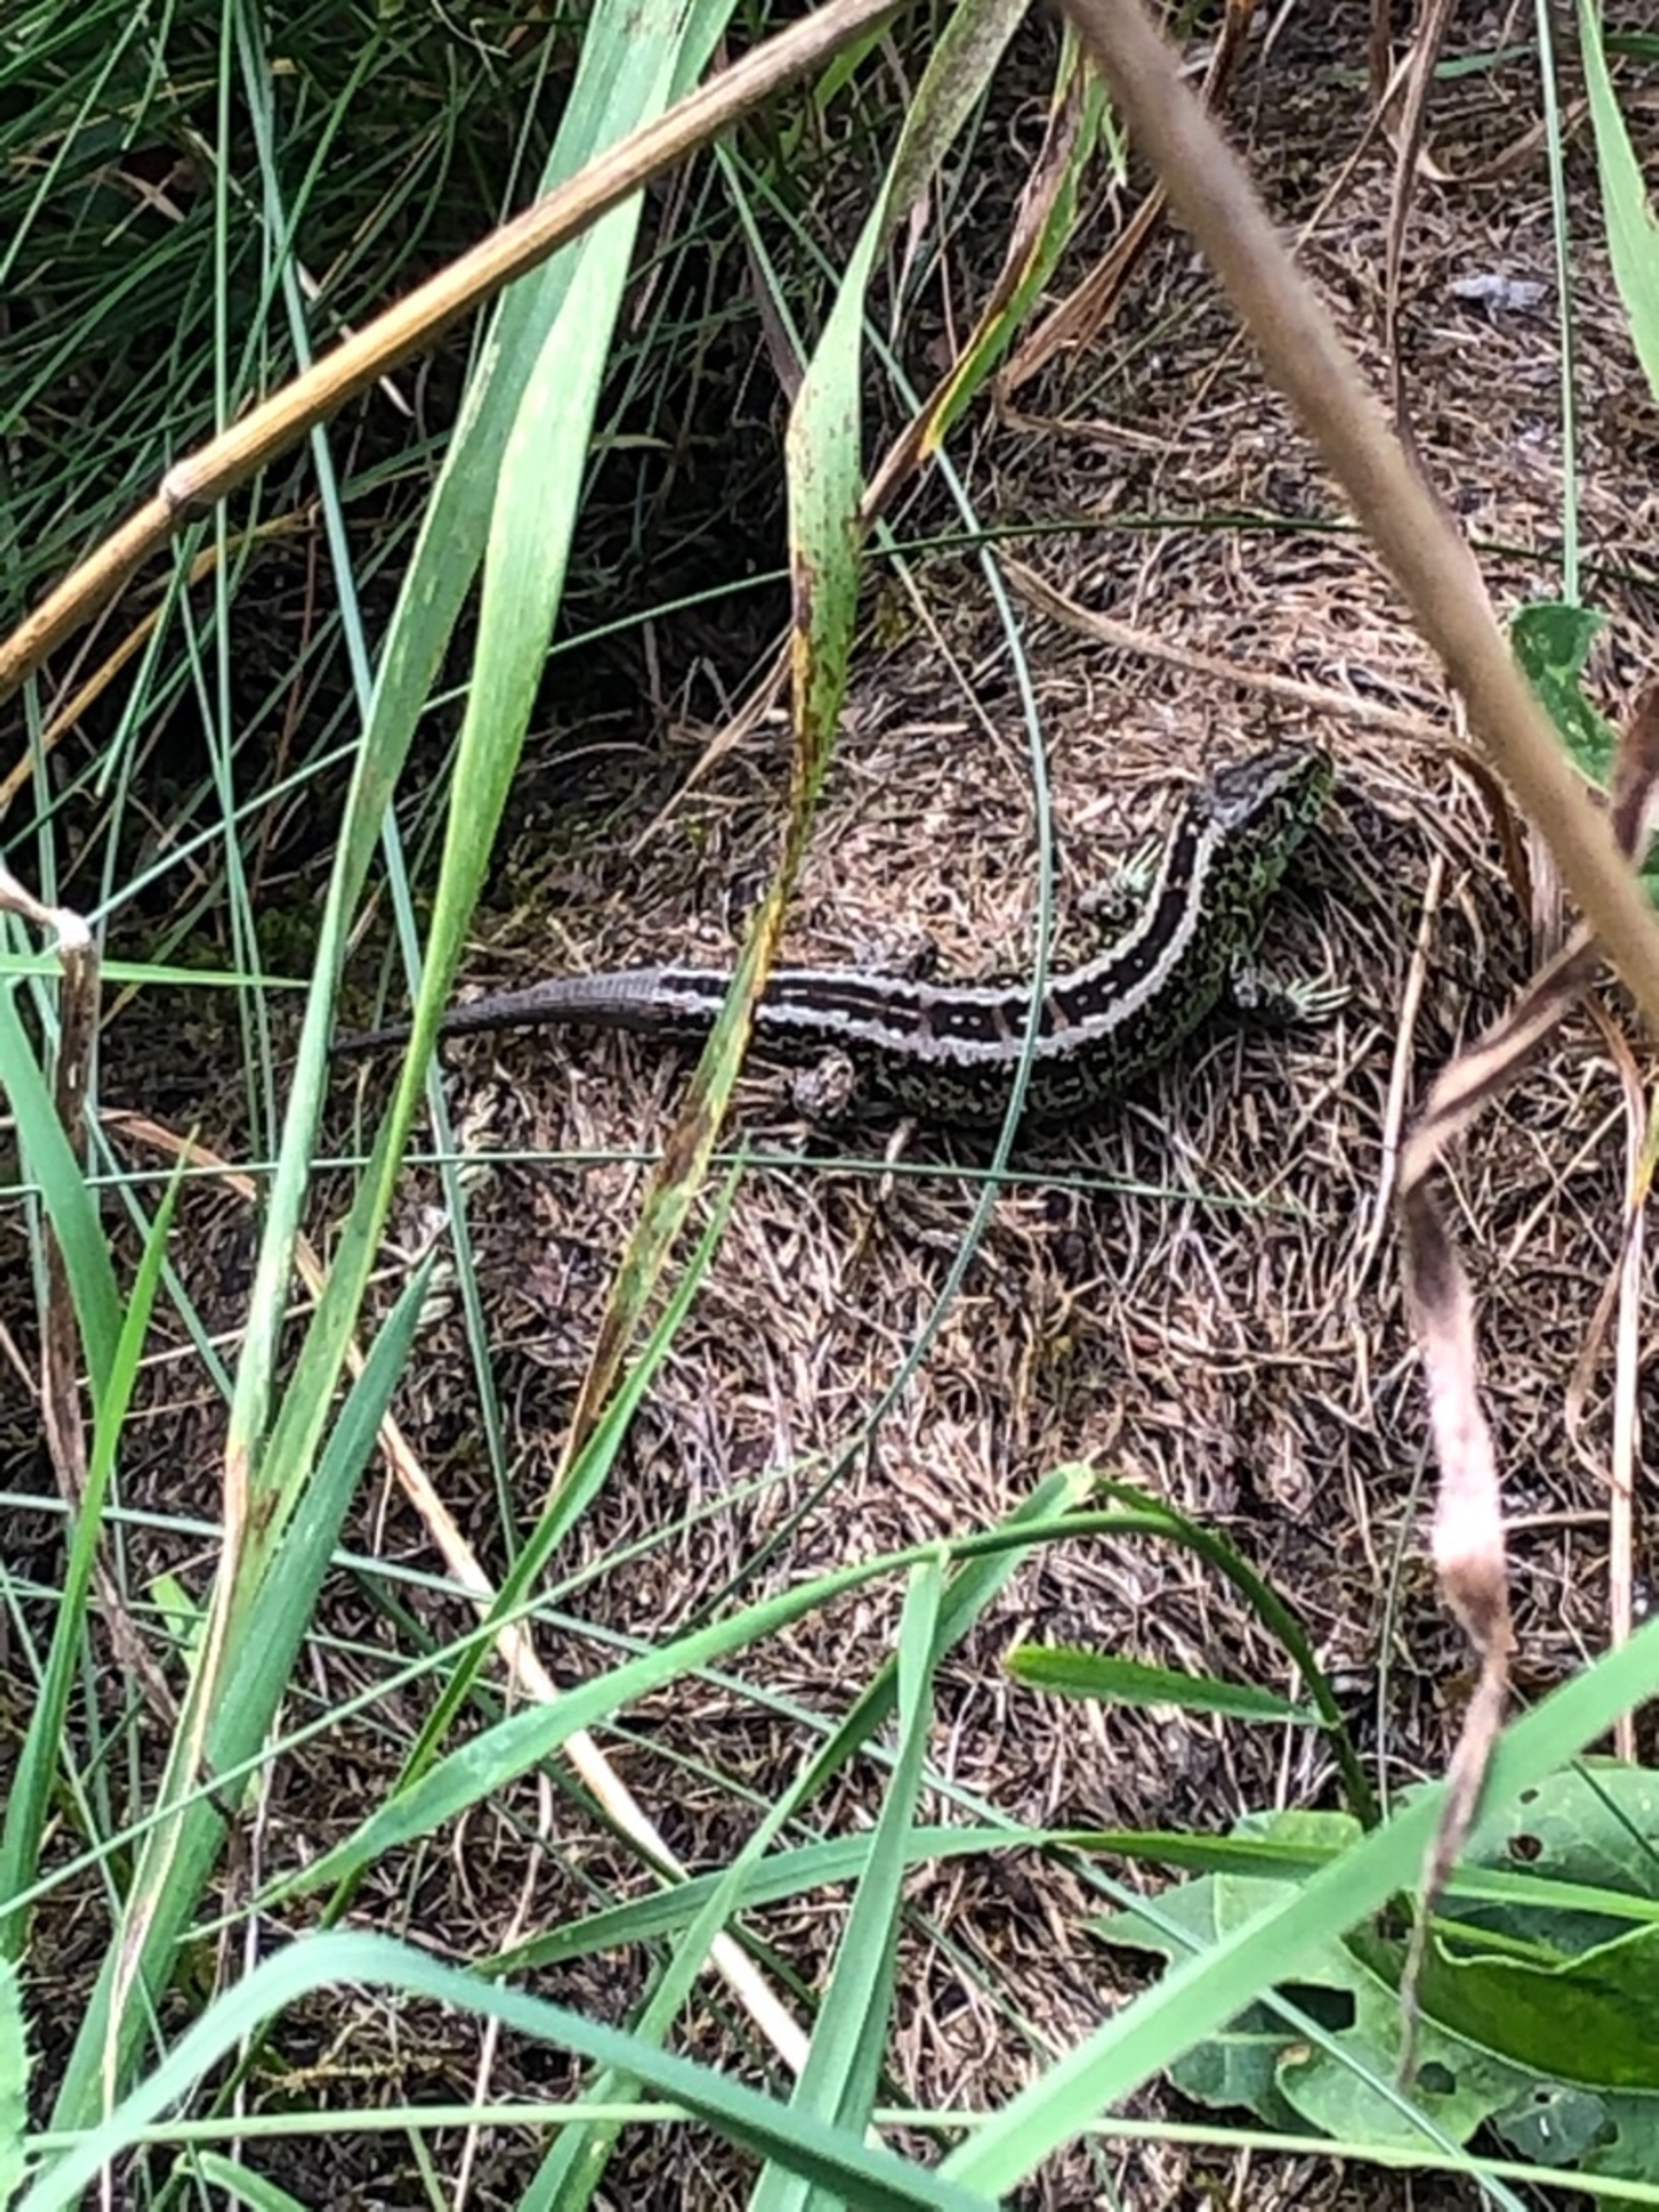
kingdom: Animalia
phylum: Chordata
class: Squamata
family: Lacertidae
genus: Lacerta
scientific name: Lacerta agilis
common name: Markfirben
